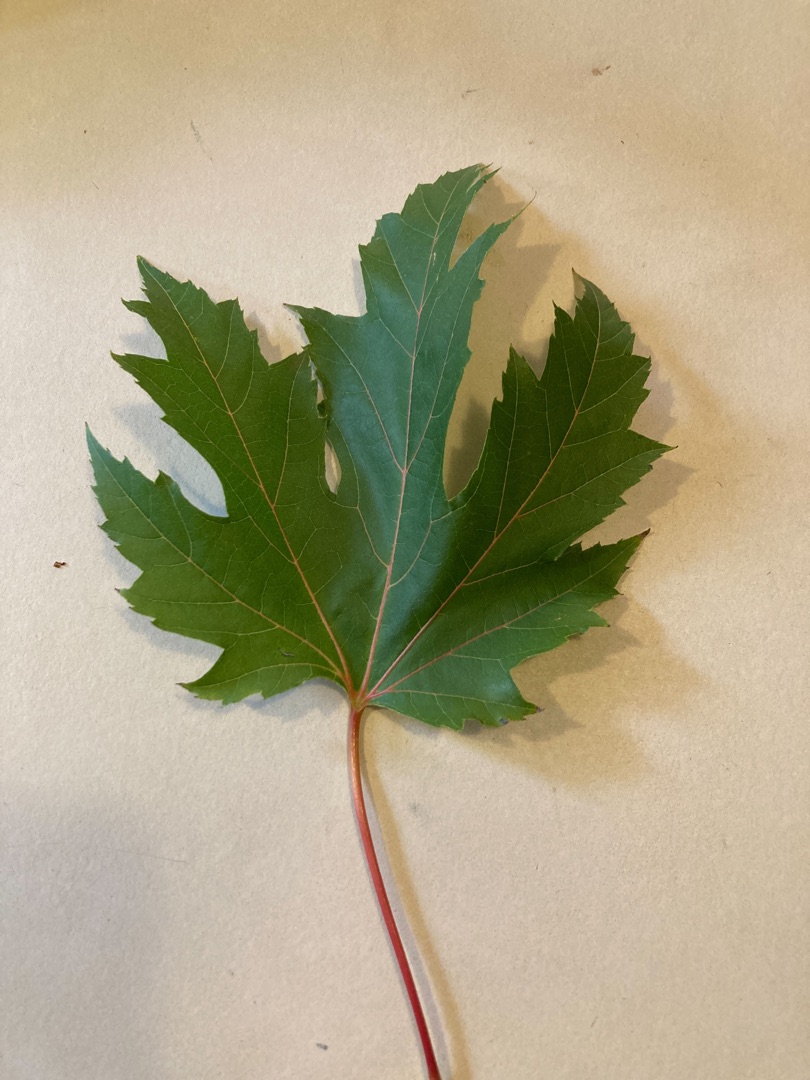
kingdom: Plantae
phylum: Tracheophyta
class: Magnoliopsida
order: Sapindales
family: Sapindaceae
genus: Acer
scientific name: Acer saccharinum
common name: Sølv-løn
